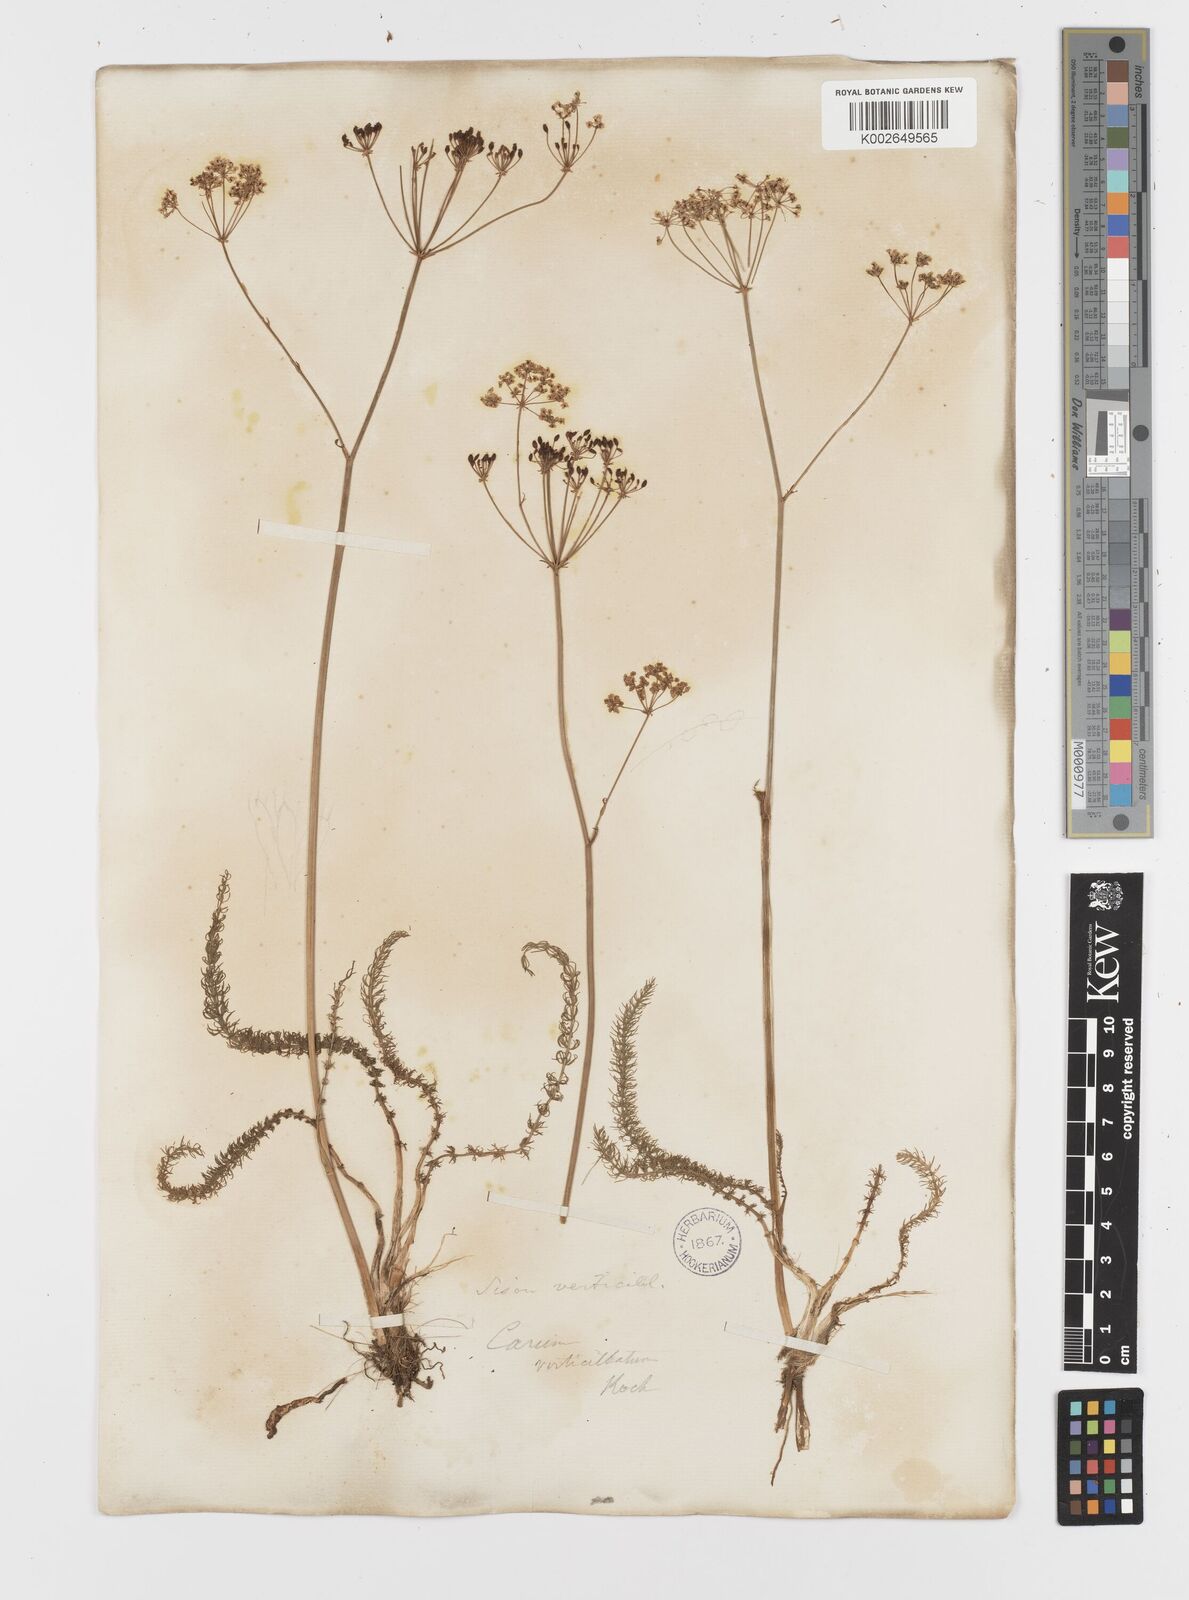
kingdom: Plantae
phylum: Tracheophyta
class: Magnoliopsida
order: Apiales
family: Apiaceae
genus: Trocdaris
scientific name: Trocdaris verticillatum
